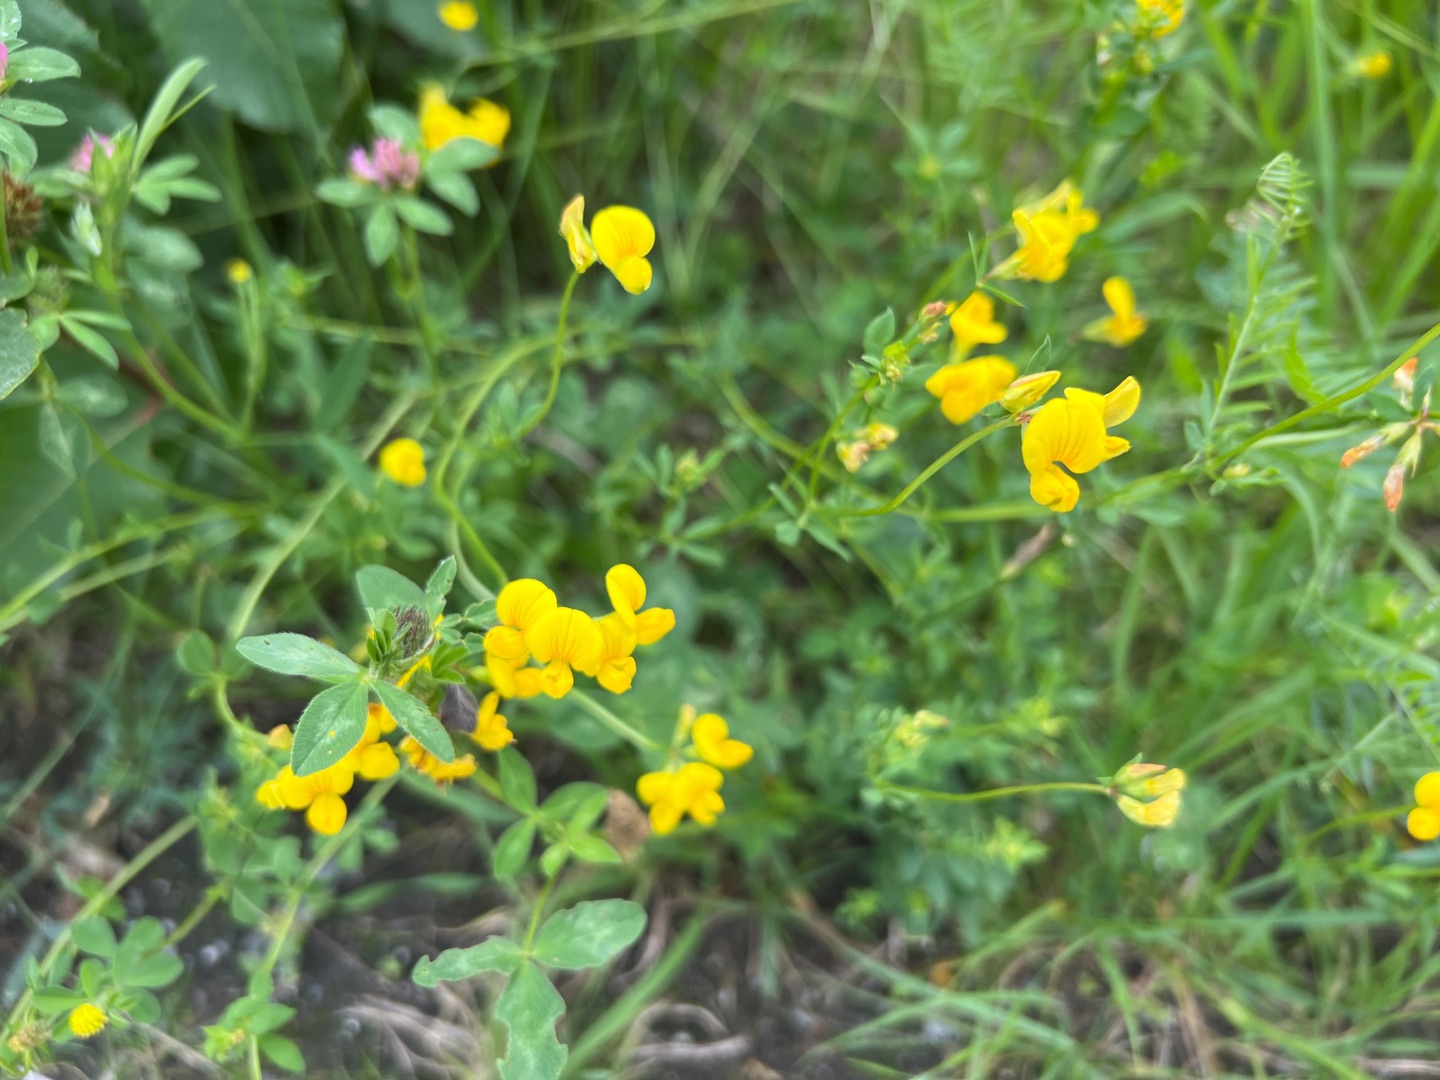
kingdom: Plantae
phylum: Tracheophyta
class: Magnoliopsida
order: Fabales
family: Fabaceae
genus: Lotus
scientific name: Lotus corniculatus
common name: Almindelig kællingetand
